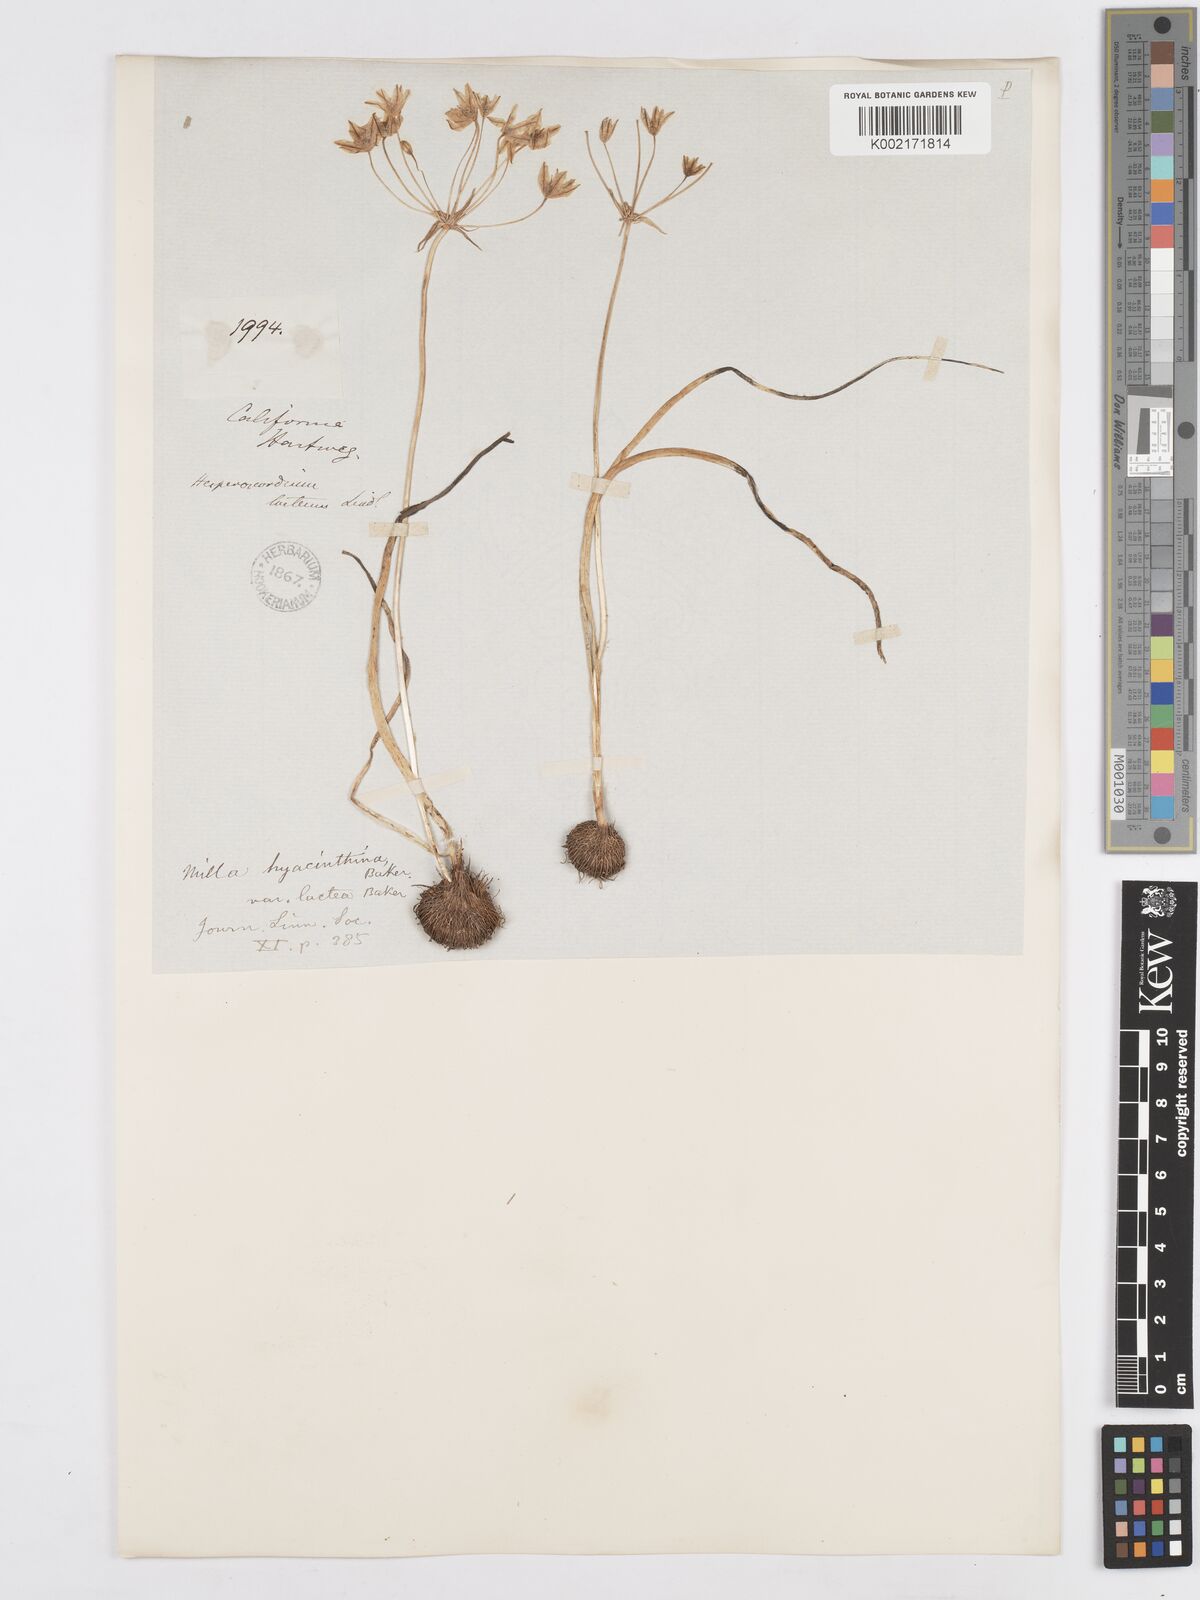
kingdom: Plantae
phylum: Tracheophyta
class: Liliopsida
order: Asparagales
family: Asparagaceae
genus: Triteleia
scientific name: Triteleia hyacinthina
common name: White brodiaea
